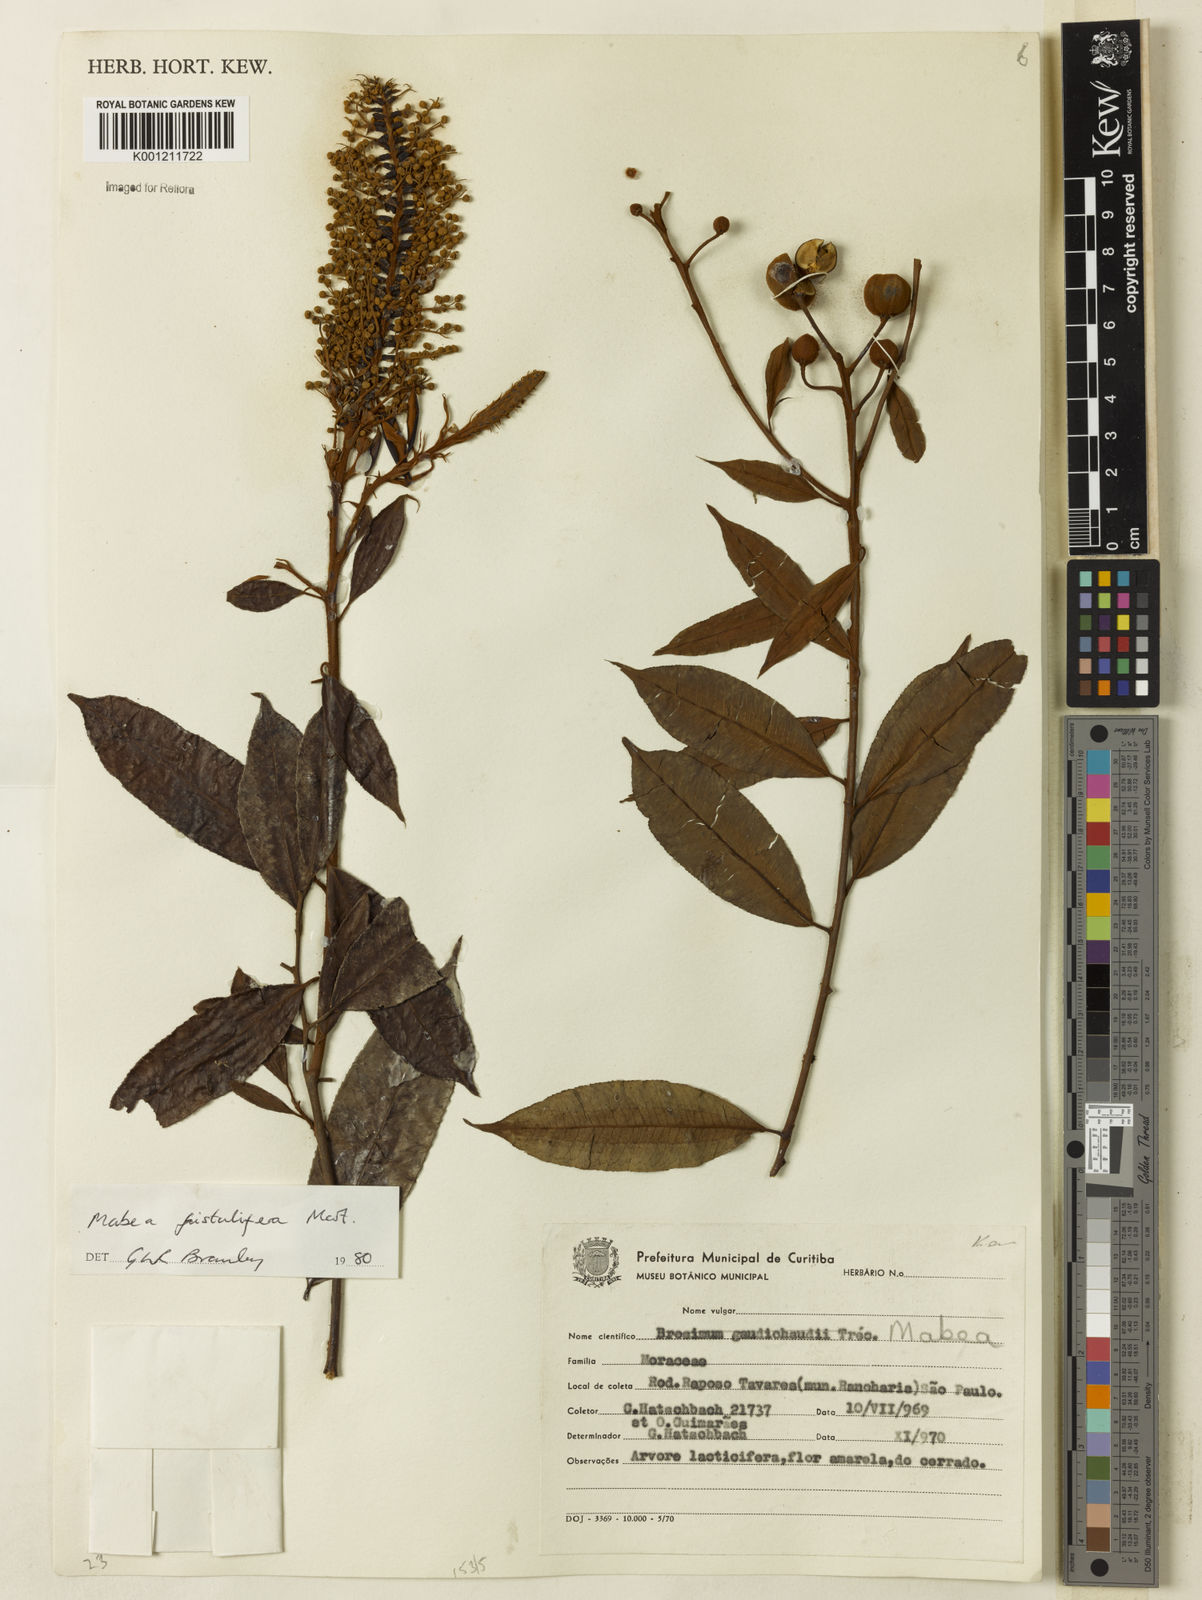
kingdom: Plantae
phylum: Tracheophyta
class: Magnoliopsida
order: Malpighiales
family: Euphorbiaceae
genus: Mabea
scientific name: Mabea fistulifera
